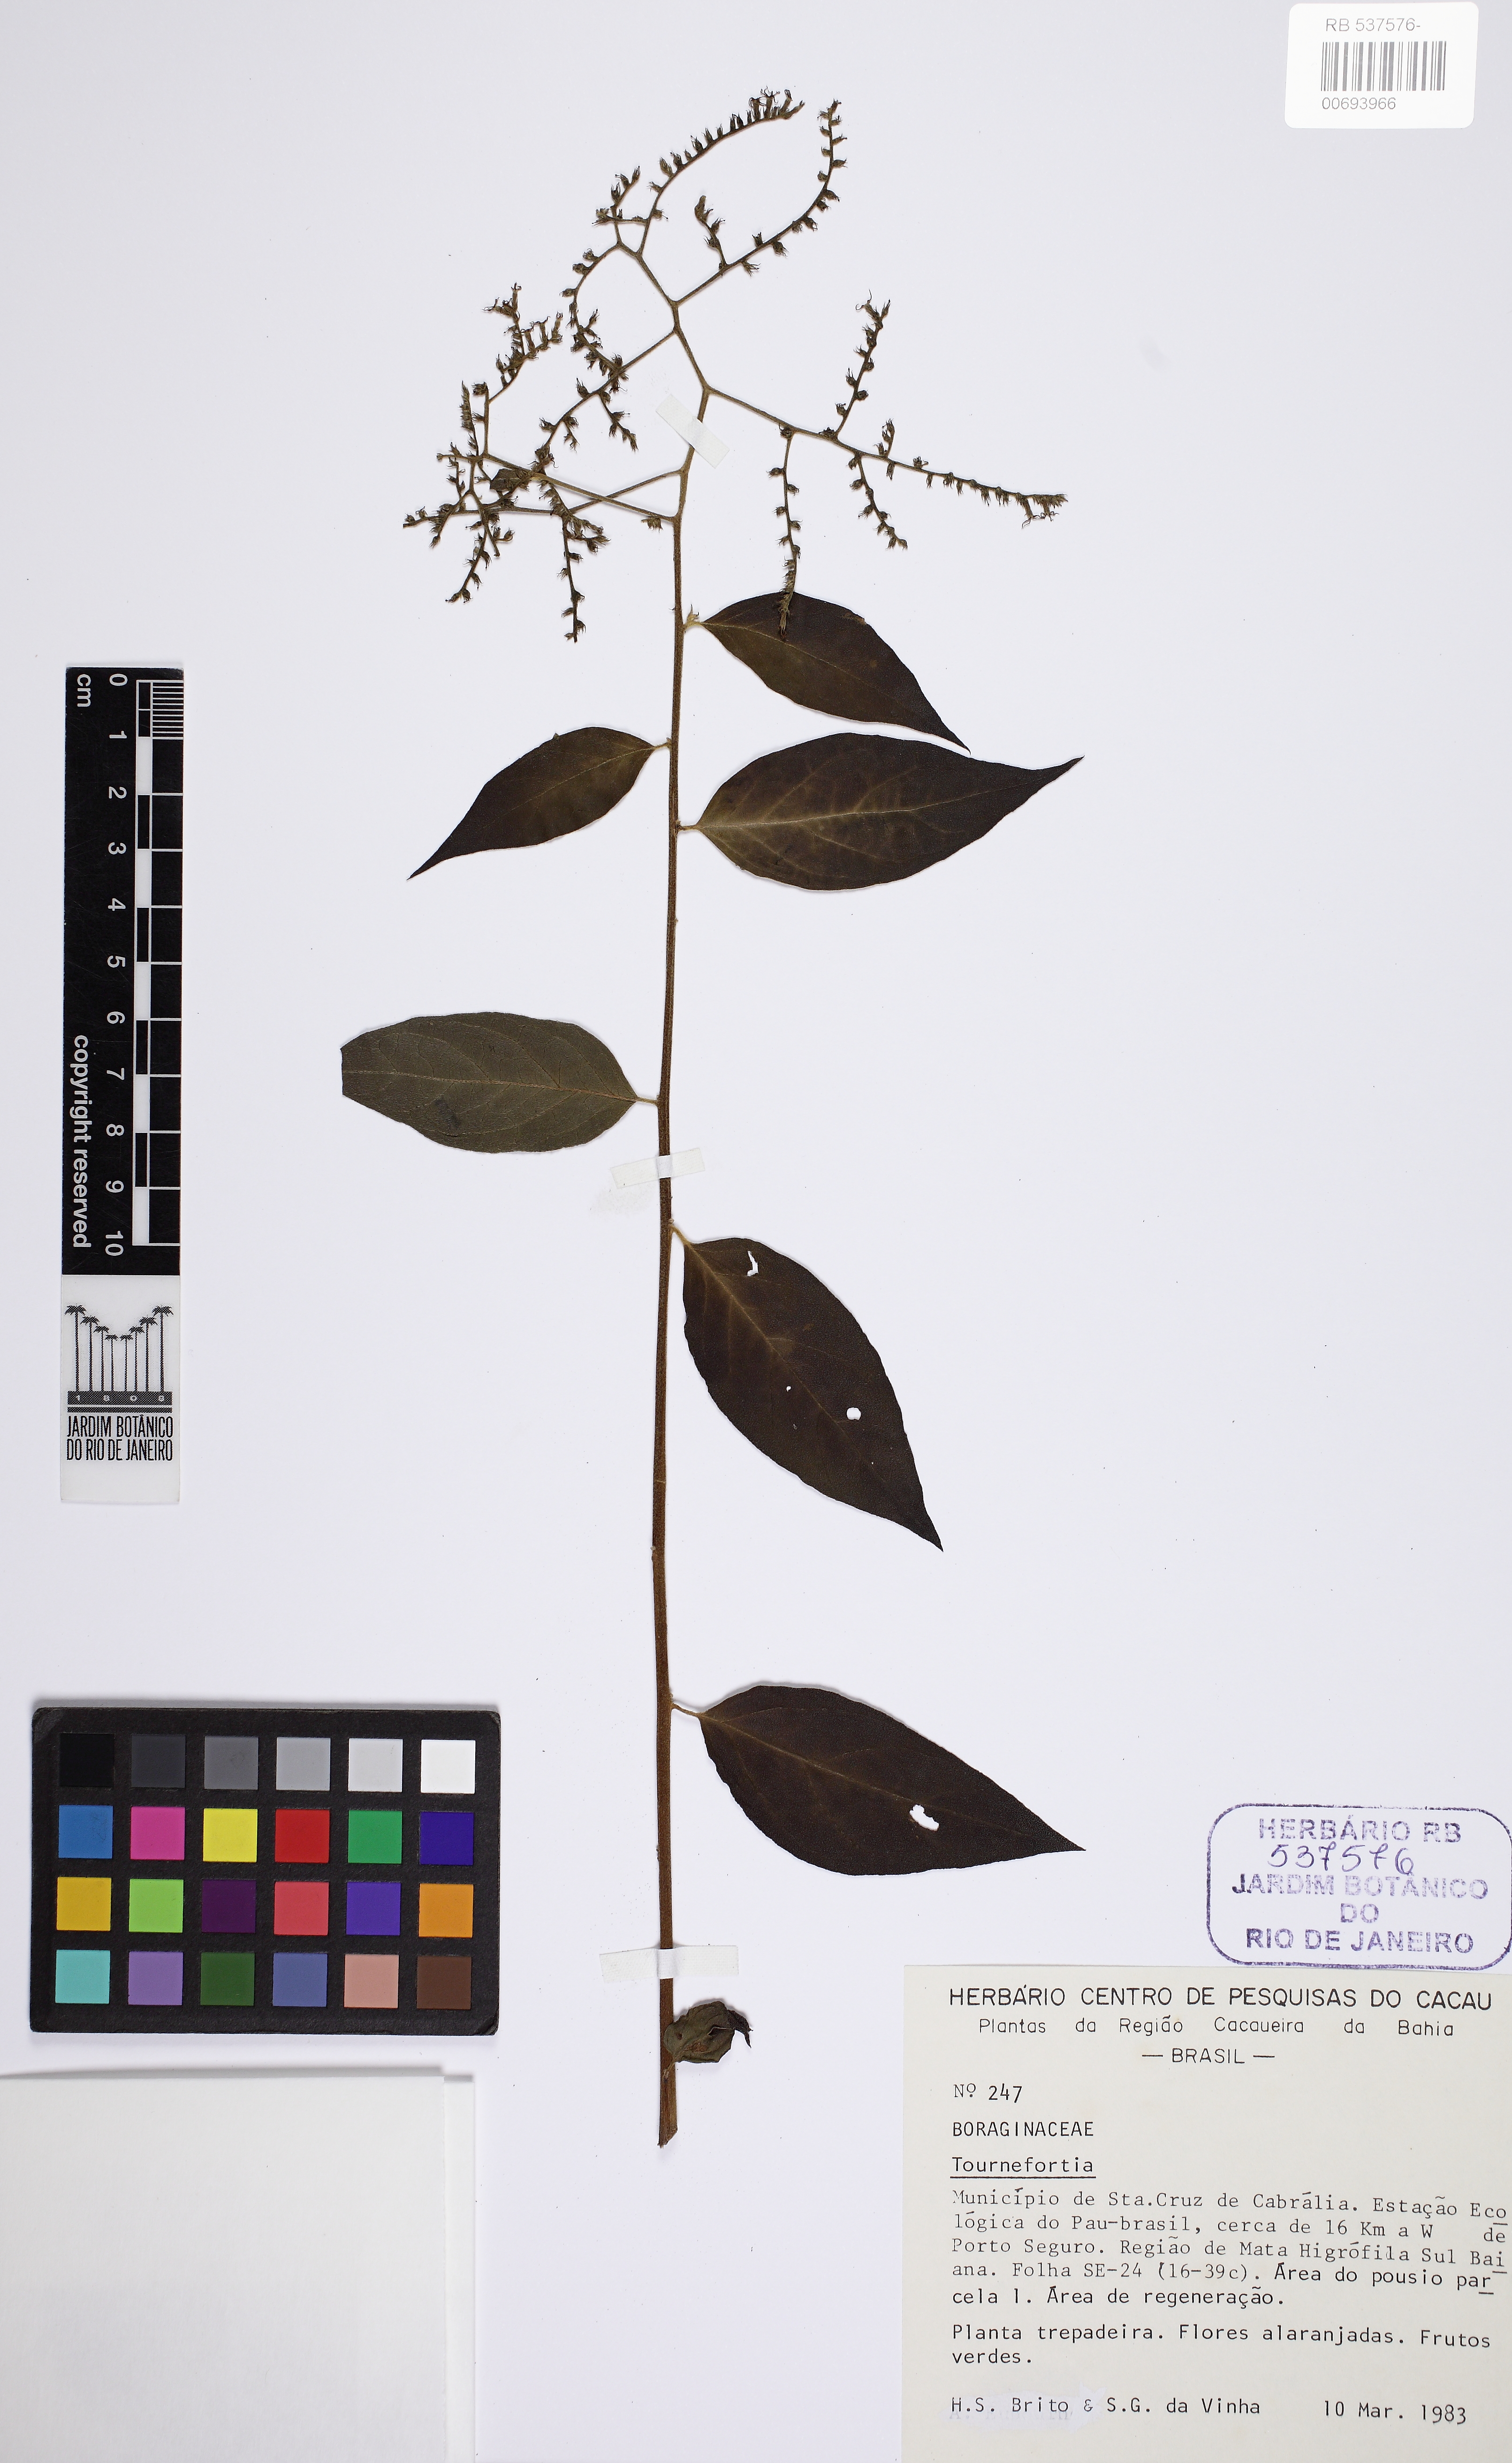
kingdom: Plantae
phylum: Tracheophyta
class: Magnoliopsida
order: Boraginales
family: Heliotropiaceae
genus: Myriopus
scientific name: Myriopus subsessilis
